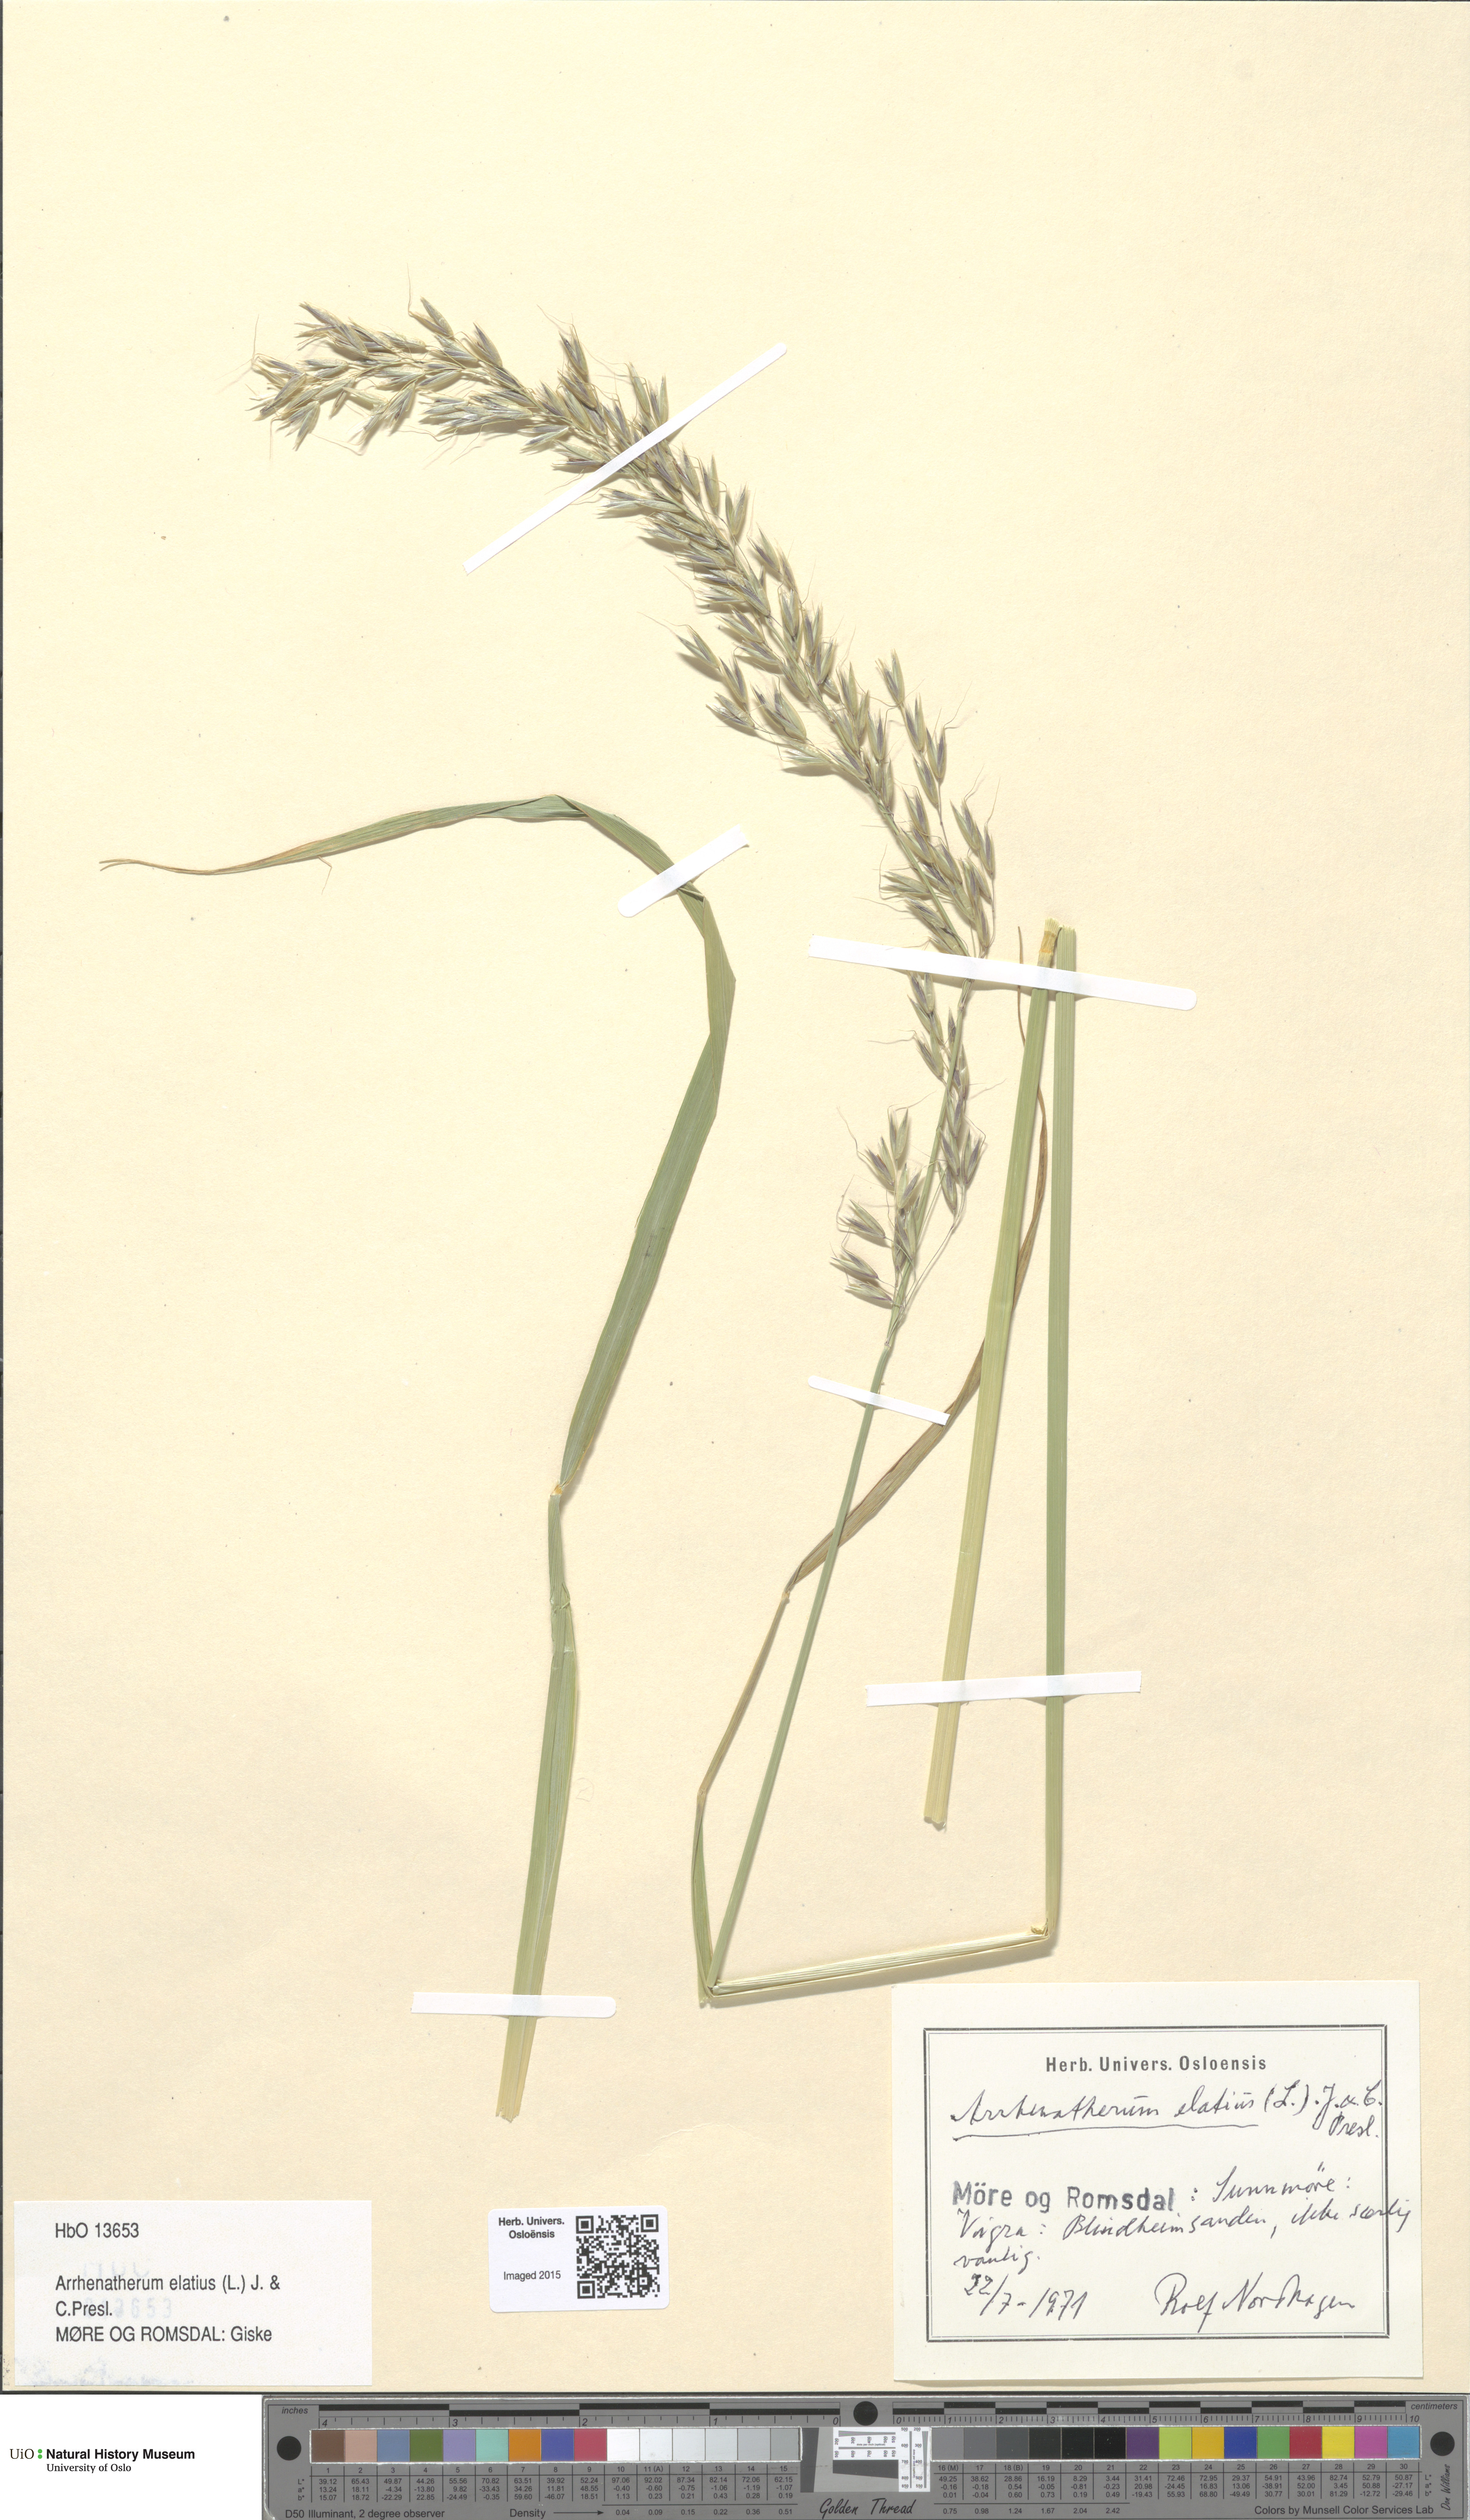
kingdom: Plantae
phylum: Tracheophyta
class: Liliopsida
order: Poales
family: Poaceae
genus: Arrhenatherum
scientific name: Arrhenatherum elatius
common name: Tall oatgrass
